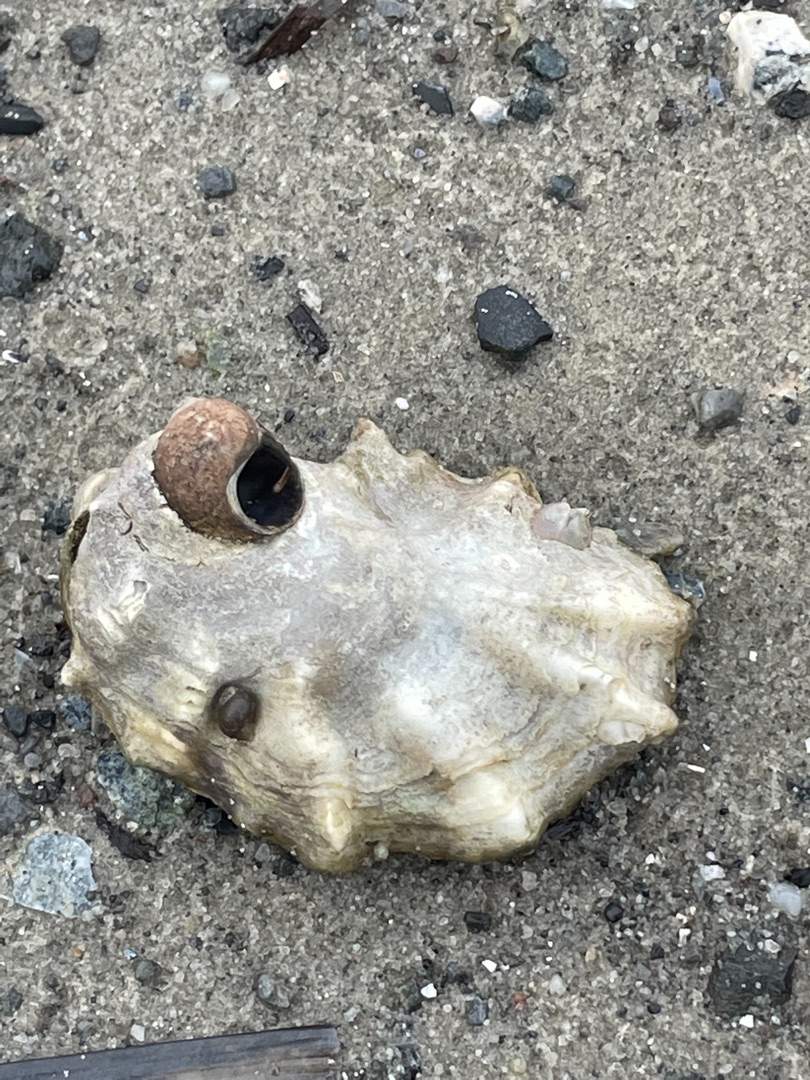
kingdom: Animalia
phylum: Mollusca
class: Bivalvia
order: Ostreida
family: Ostreidae
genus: Magallana
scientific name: Magallana gigas
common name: Stillehavsøsters
